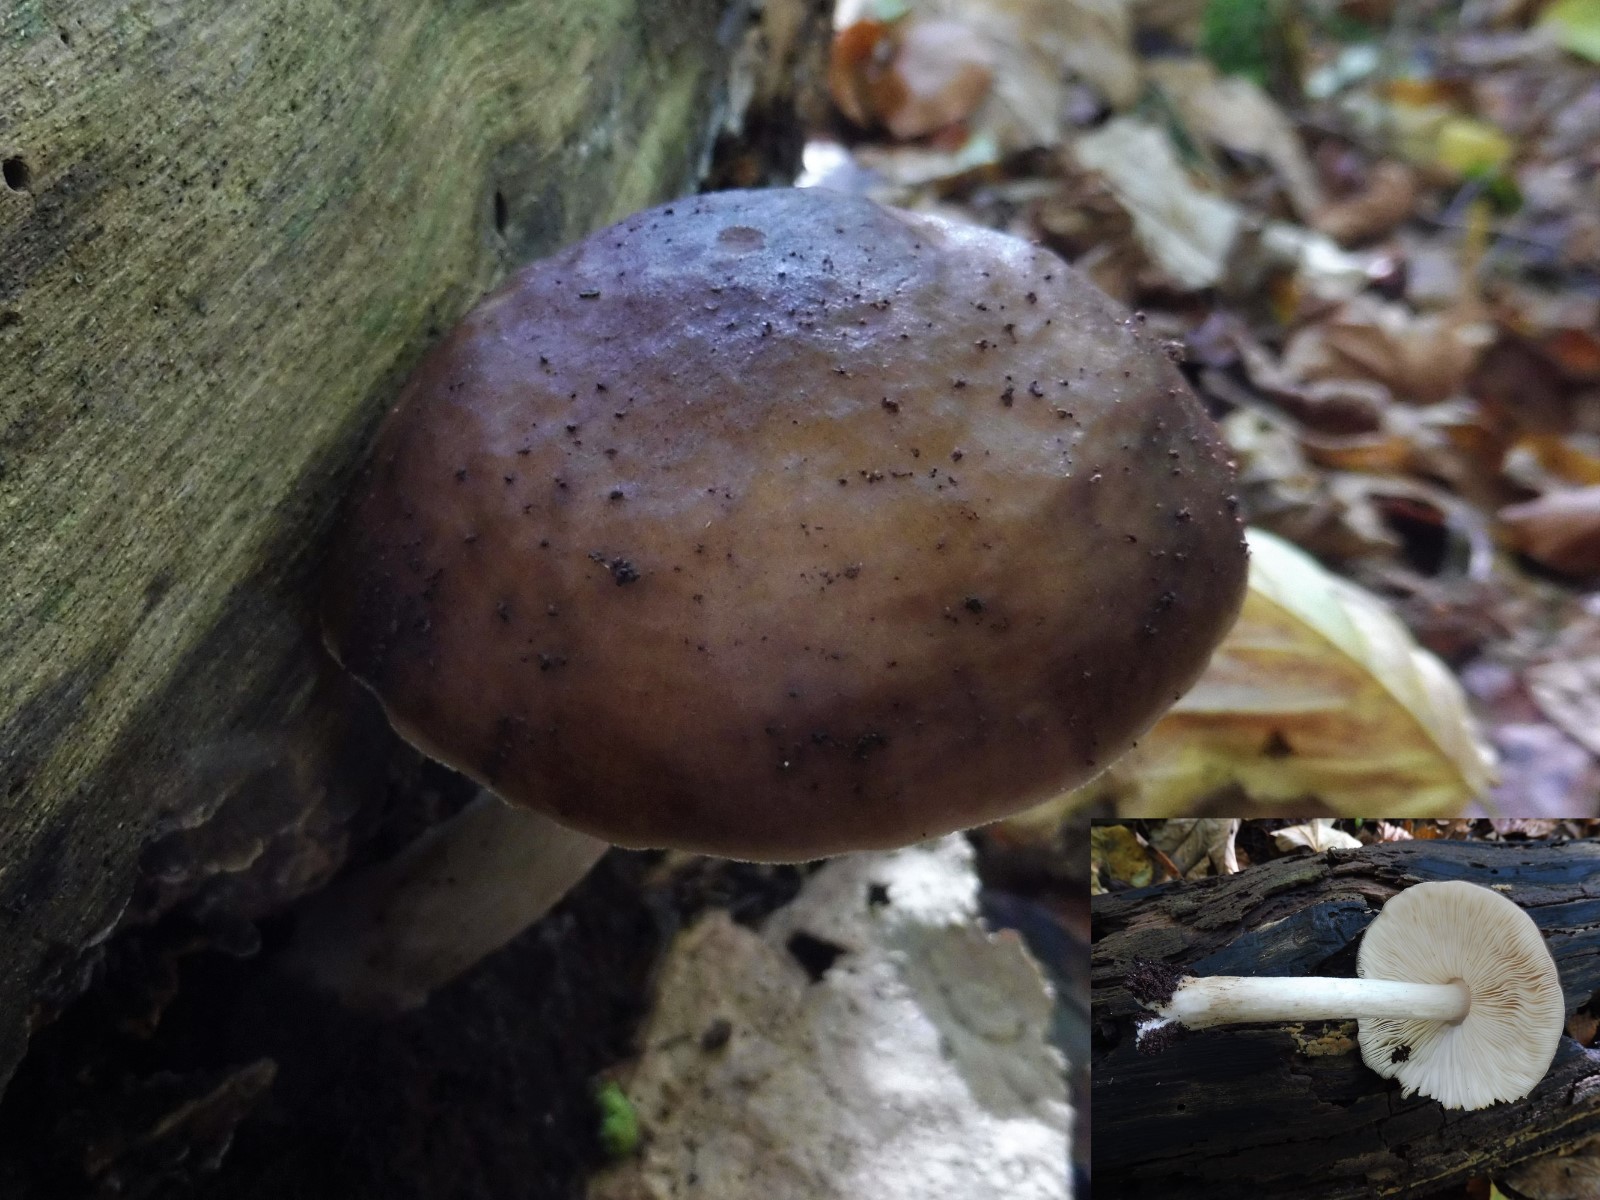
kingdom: Fungi
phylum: Basidiomycota
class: Agaricomycetes
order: Agaricales
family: Pluteaceae
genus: Pluteus
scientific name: Pluteus cervinus
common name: sodfarvet skærmhat
